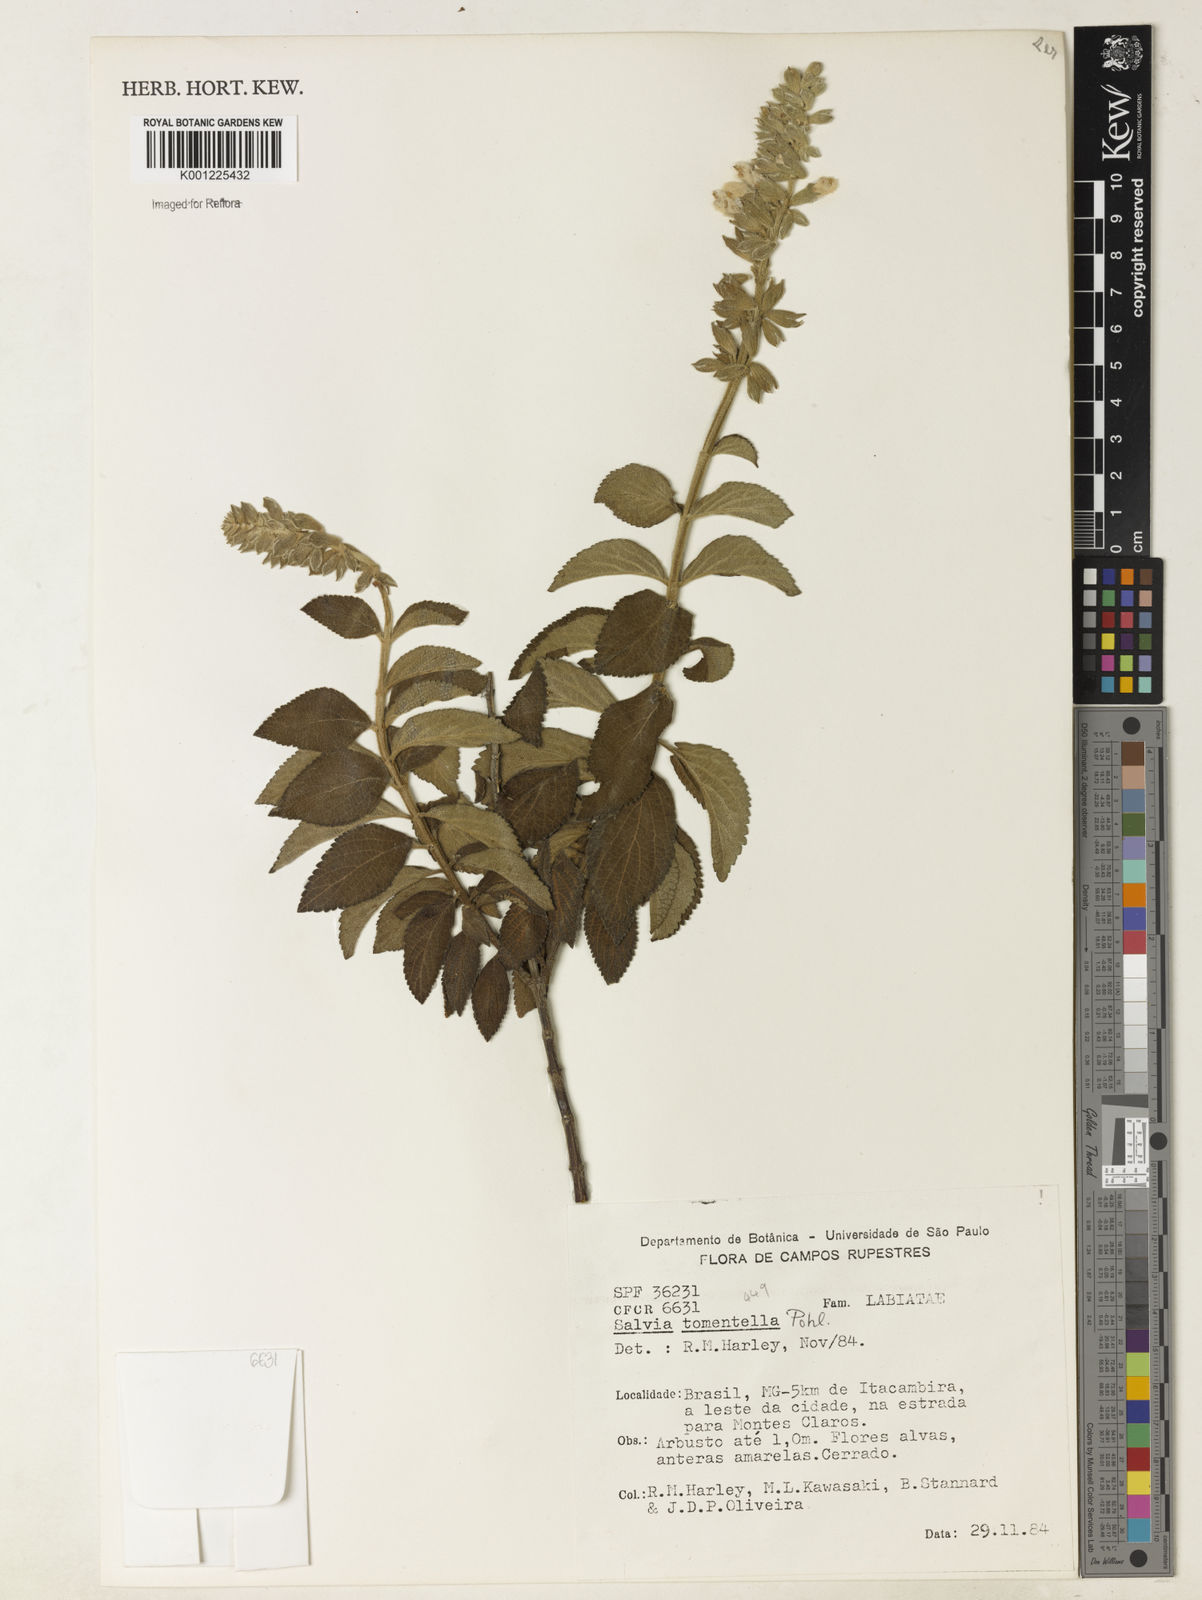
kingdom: Plantae
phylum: Tracheophyta
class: Magnoliopsida
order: Lamiales
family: Lamiaceae
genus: Salvia
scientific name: Salvia tomentella
